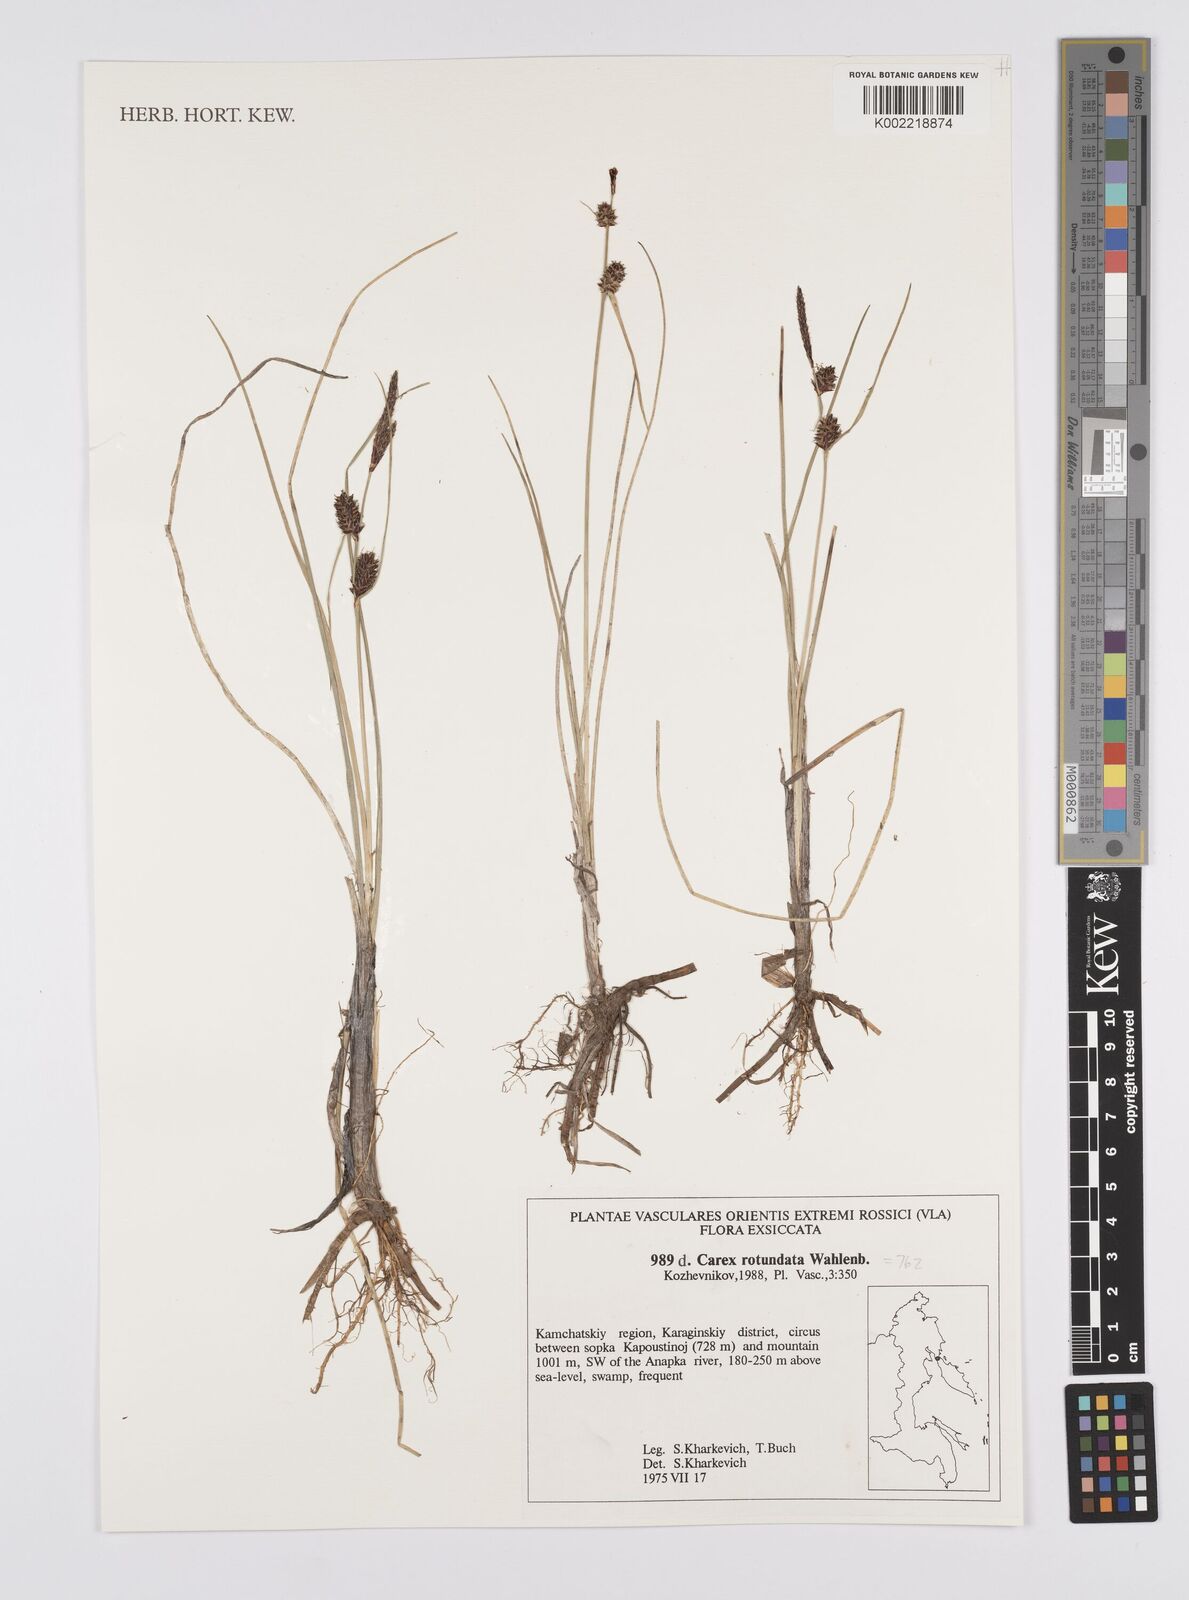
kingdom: Plantae
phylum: Tracheophyta
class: Liliopsida
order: Poales
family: Cyperaceae
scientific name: Cyperaceae
